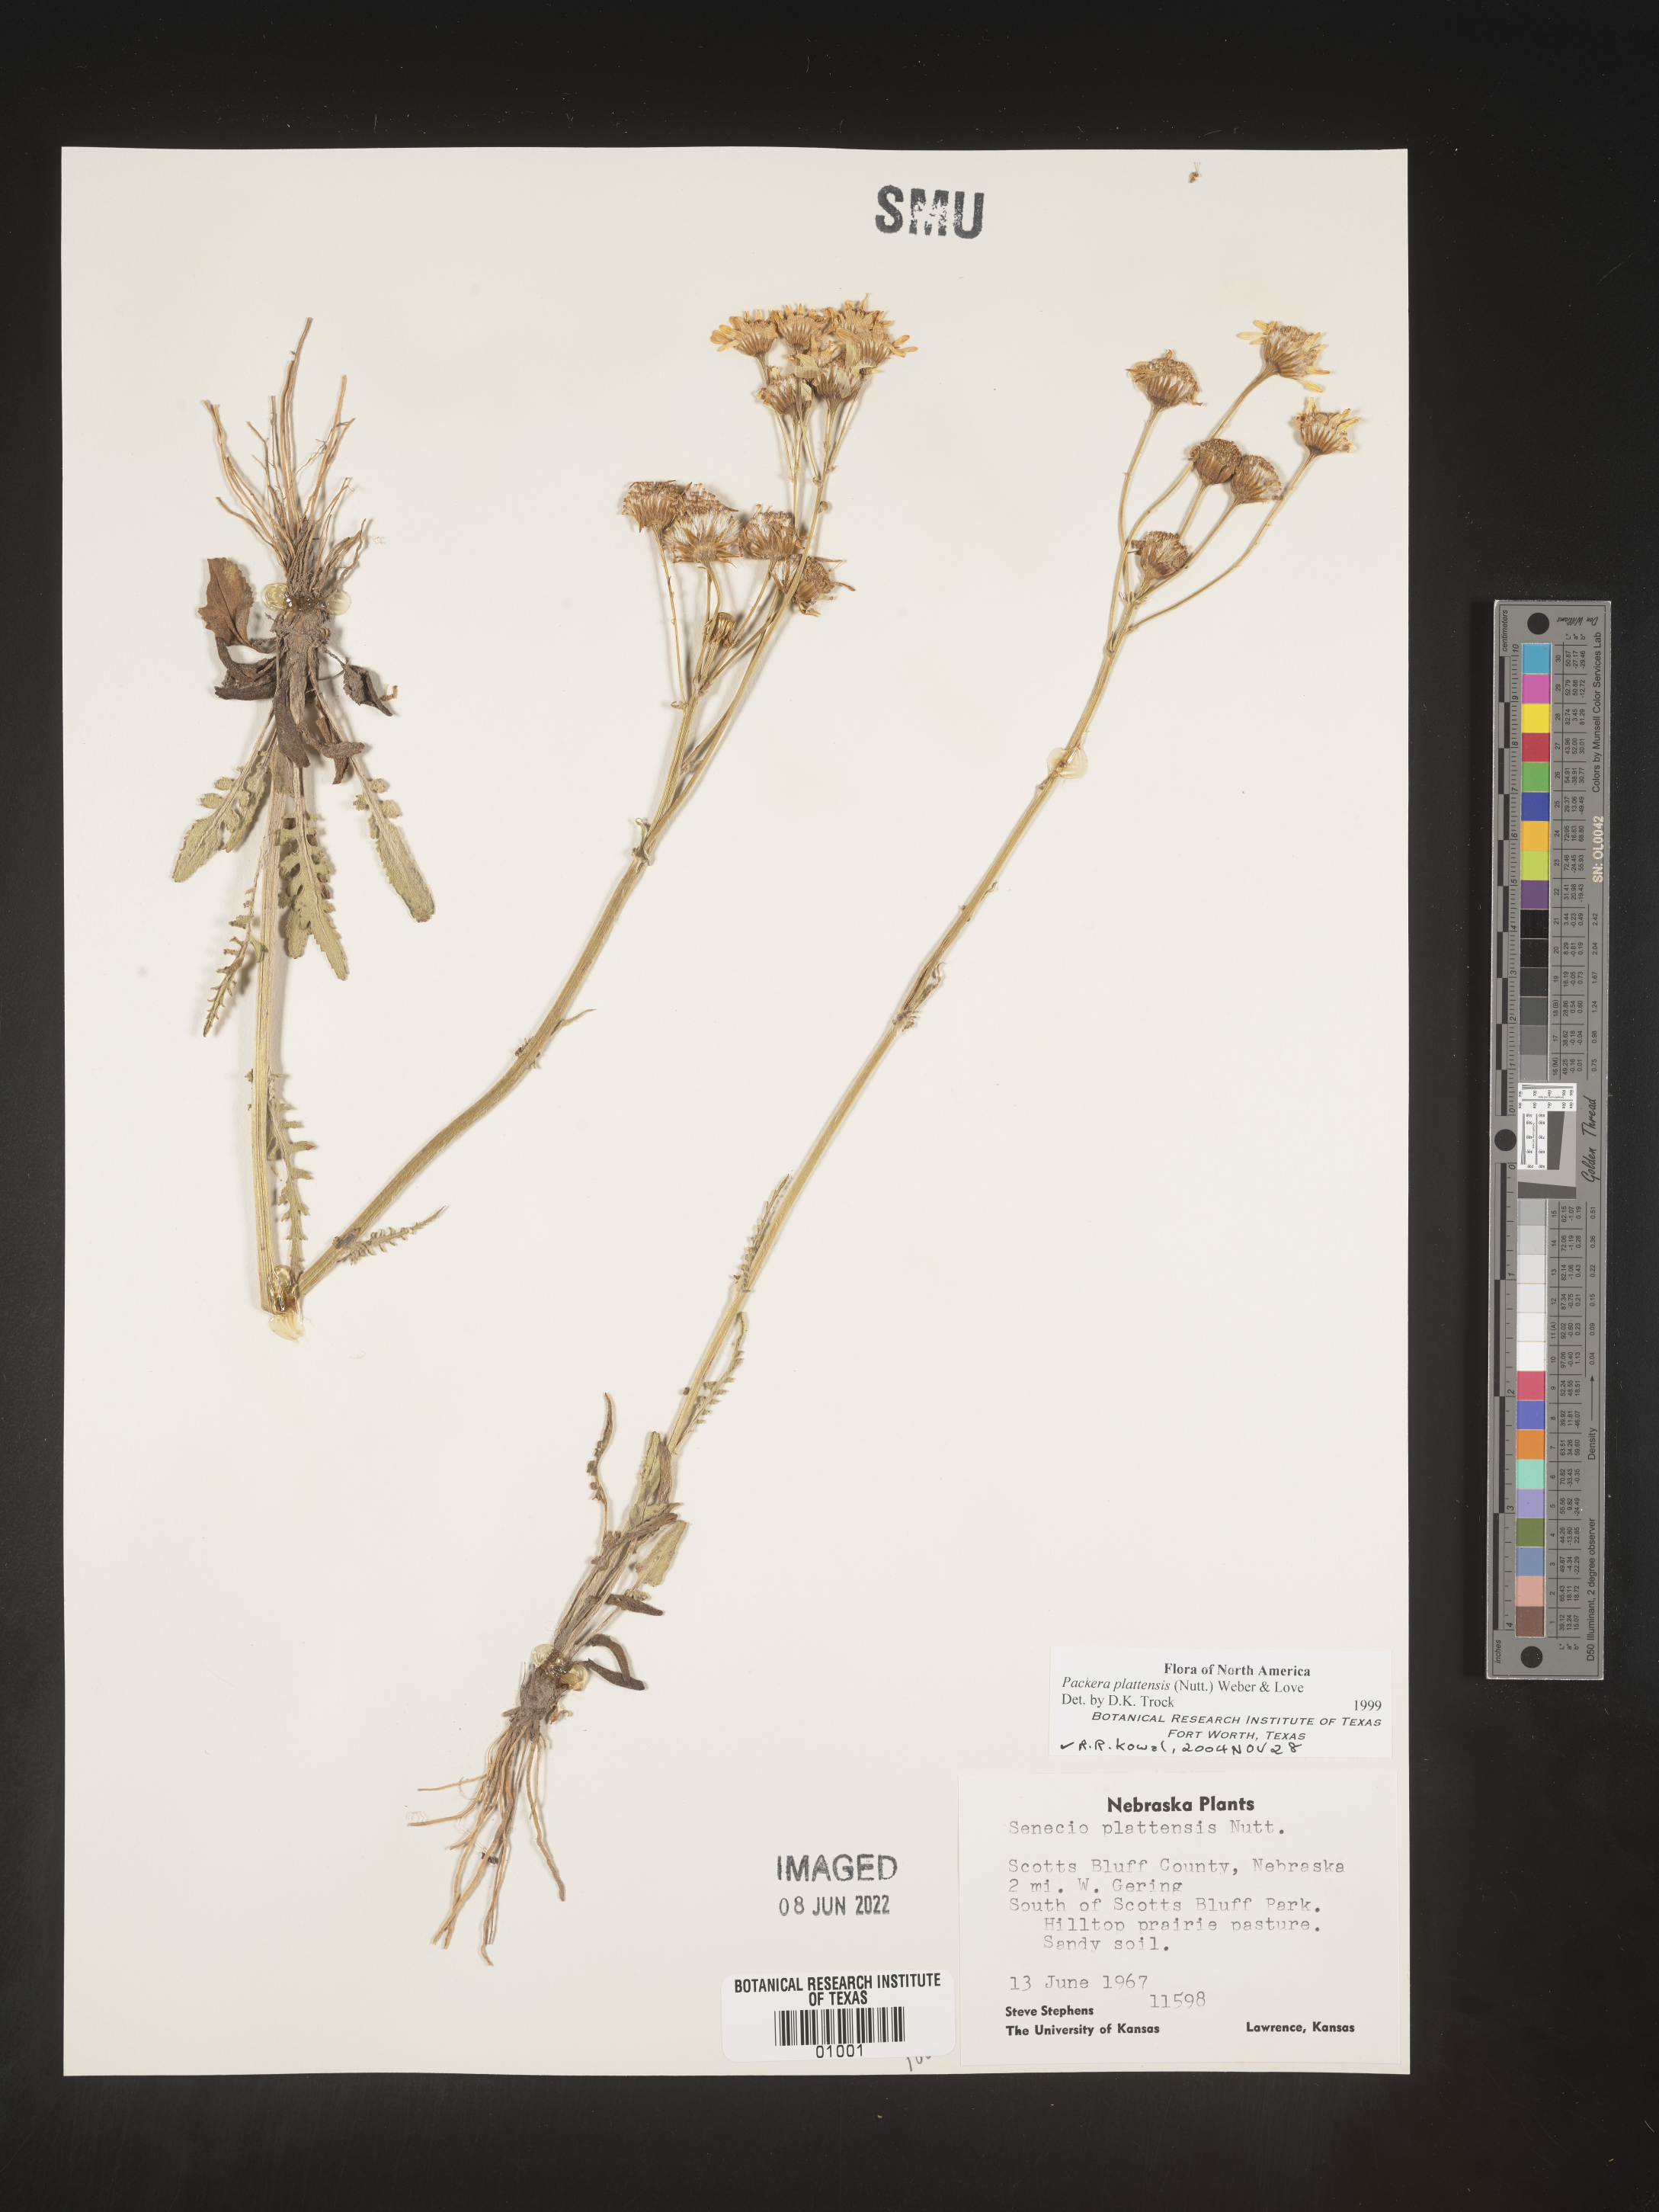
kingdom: Plantae
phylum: Tracheophyta
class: Magnoliopsida
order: Asterales
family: Asteraceae
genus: Packera
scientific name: Packera plattensis
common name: Prairie groundsel
